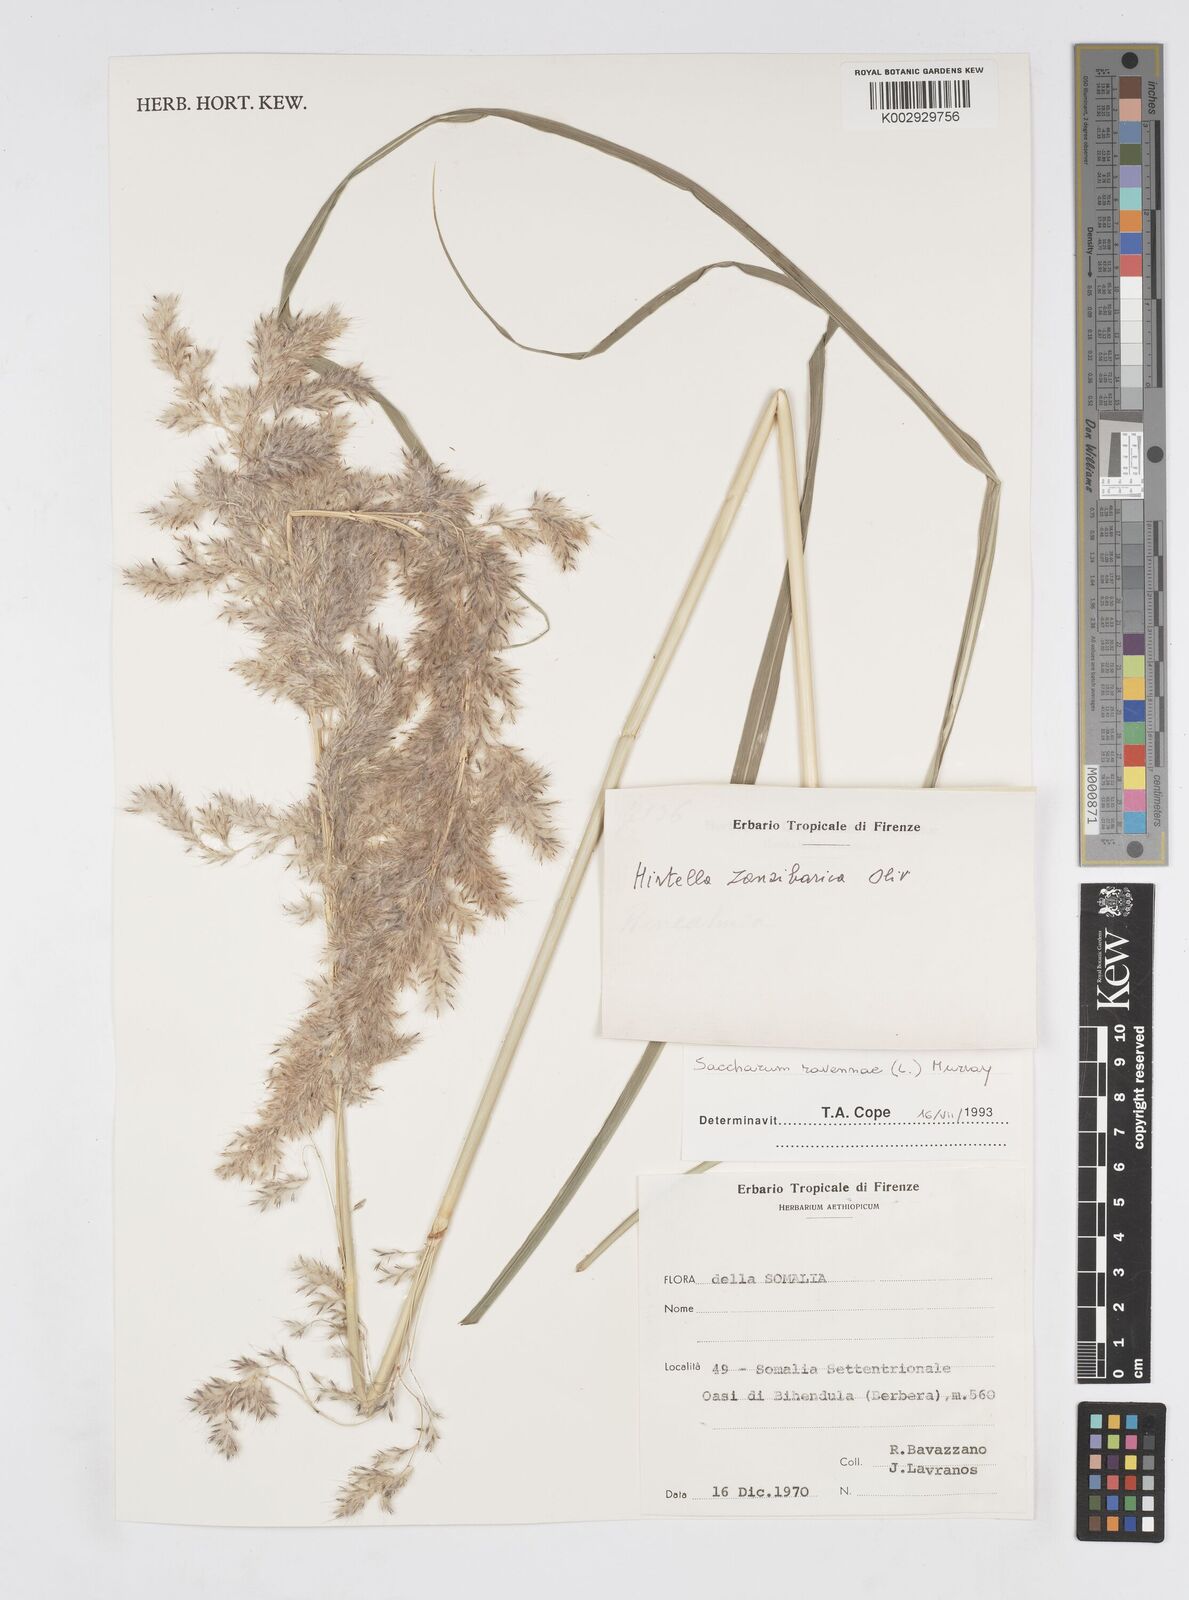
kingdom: Plantae
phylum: Tracheophyta
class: Liliopsida
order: Poales
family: Poaceae
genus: Tripidium
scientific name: Tripidium ravennae
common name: Ravenna grass
